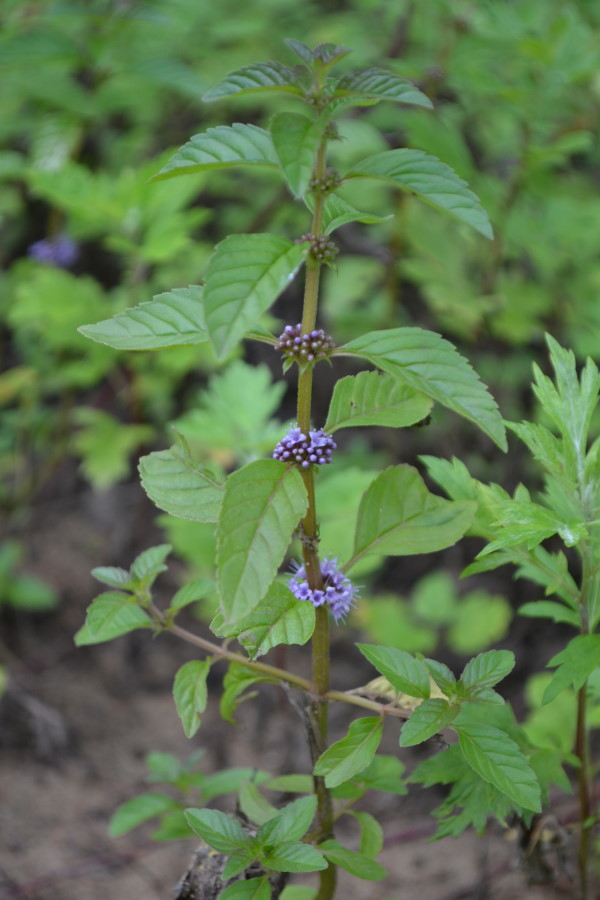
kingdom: Plantae
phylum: Tracheophyta
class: Magnoliopsida
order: Lamiales
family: Lamiaceae
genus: Mentha
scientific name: Mentha arvensis
